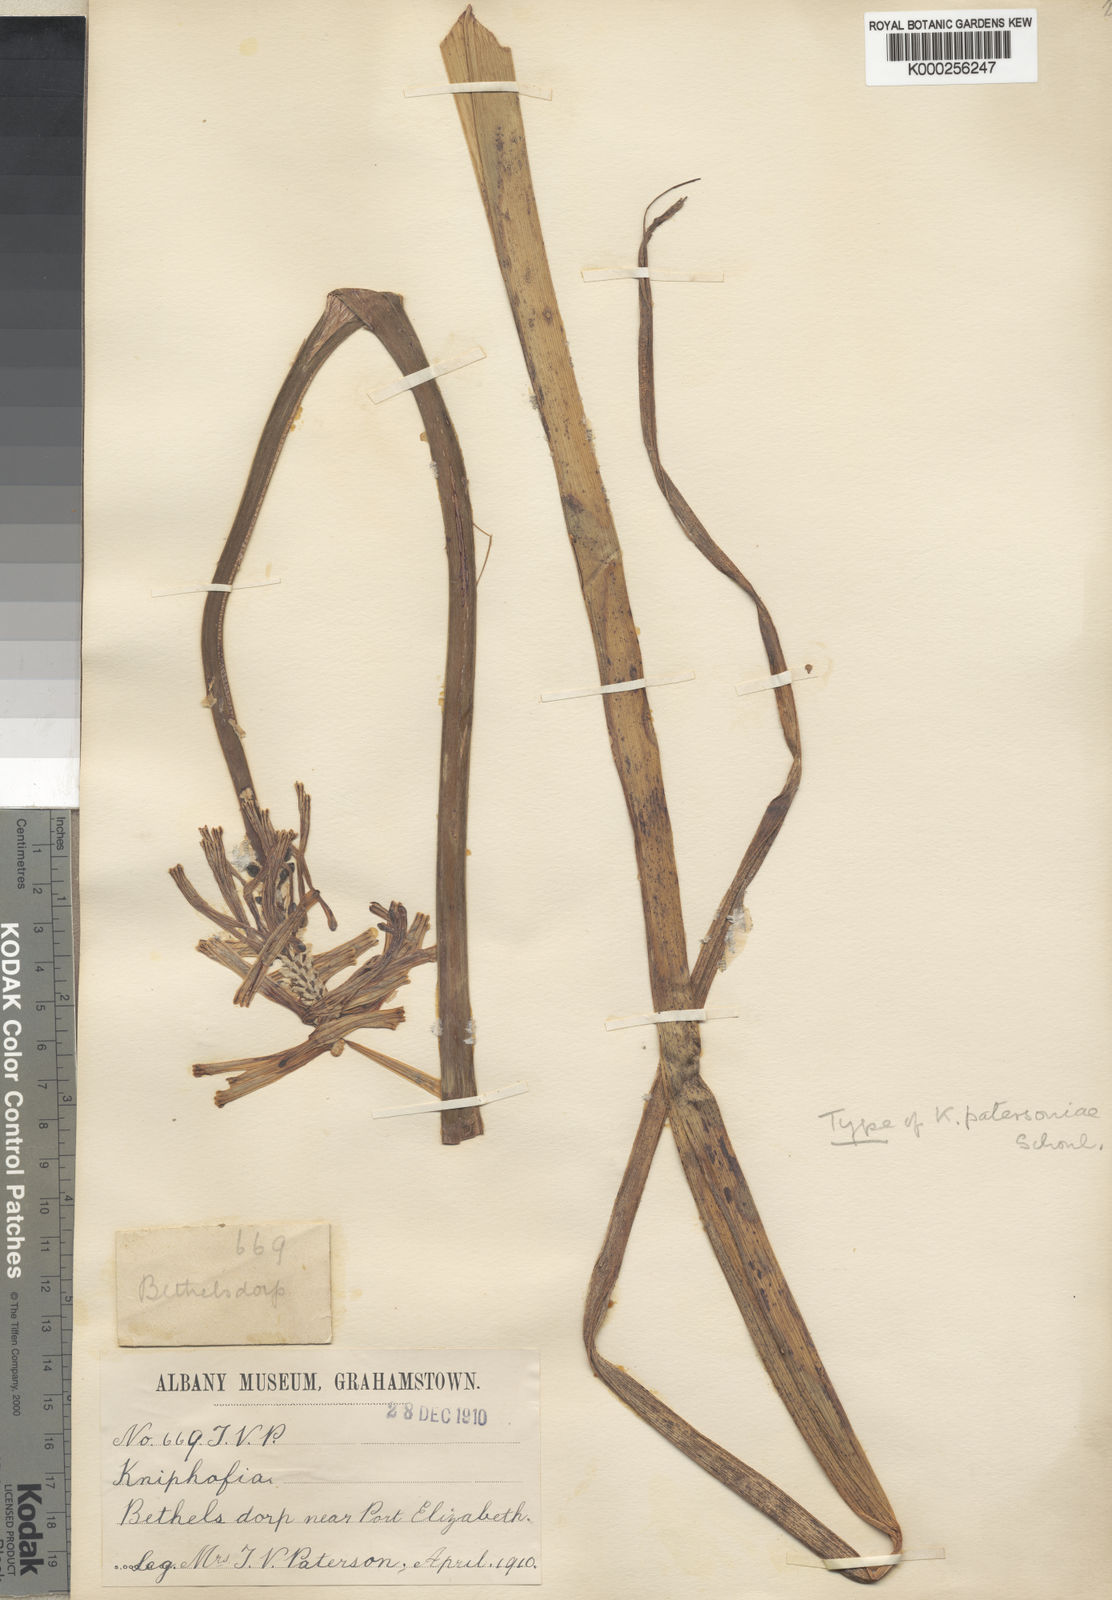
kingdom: Plantae
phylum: Tracheophyta
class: Liliopsida
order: Asparagales
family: Asphodelaceae
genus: Kniphofia
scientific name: Kniphofia
